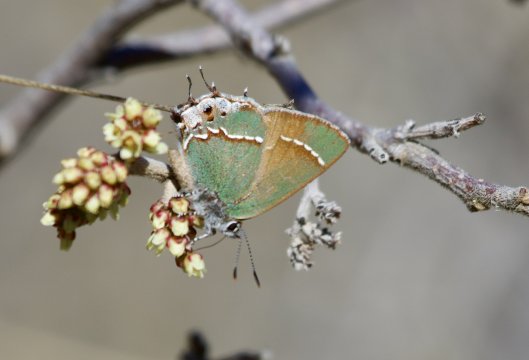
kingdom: Animalia
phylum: Arthropoda
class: Insecta
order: Lepidoptera
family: Lycaenidae
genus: Mitoura
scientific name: Mitoura gryneus
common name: Juniper Hairstreak
